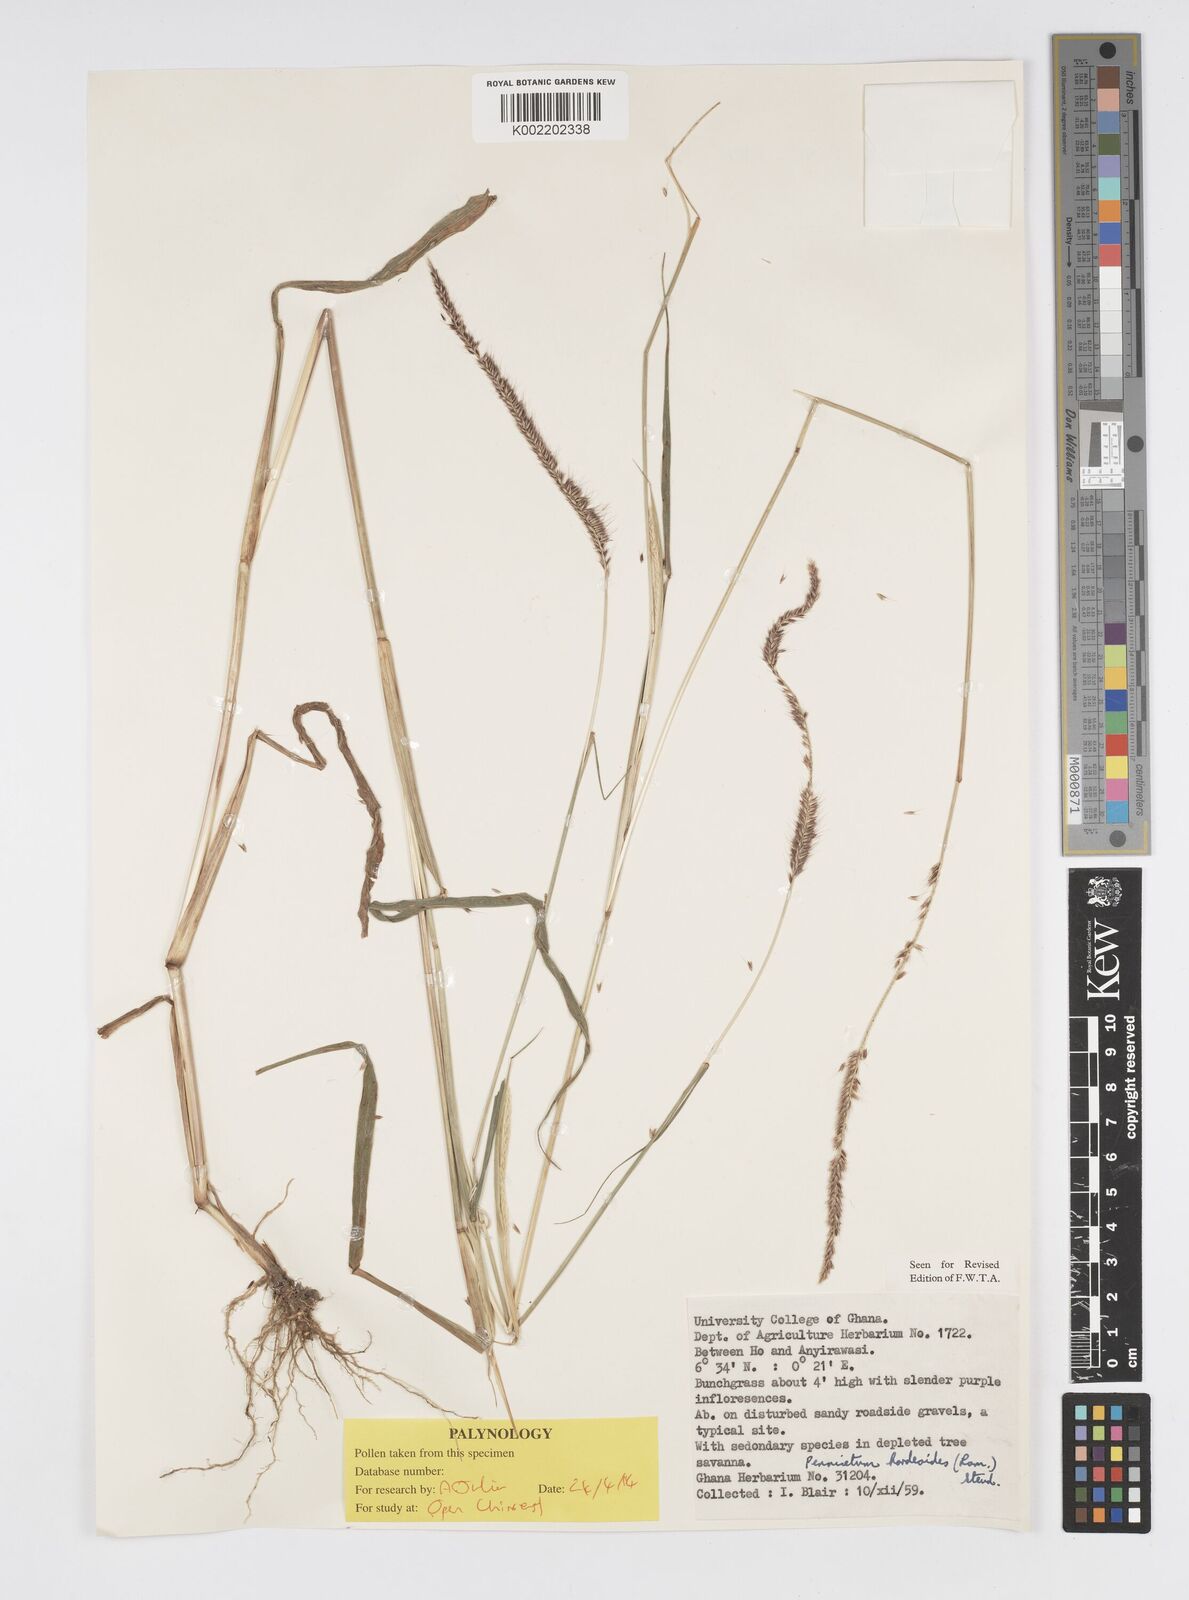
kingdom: Plantae
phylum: Tracheophyta
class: Liliopsida
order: Poales
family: Poaceae
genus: Cenchrus
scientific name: Cenchrus hordeoides
